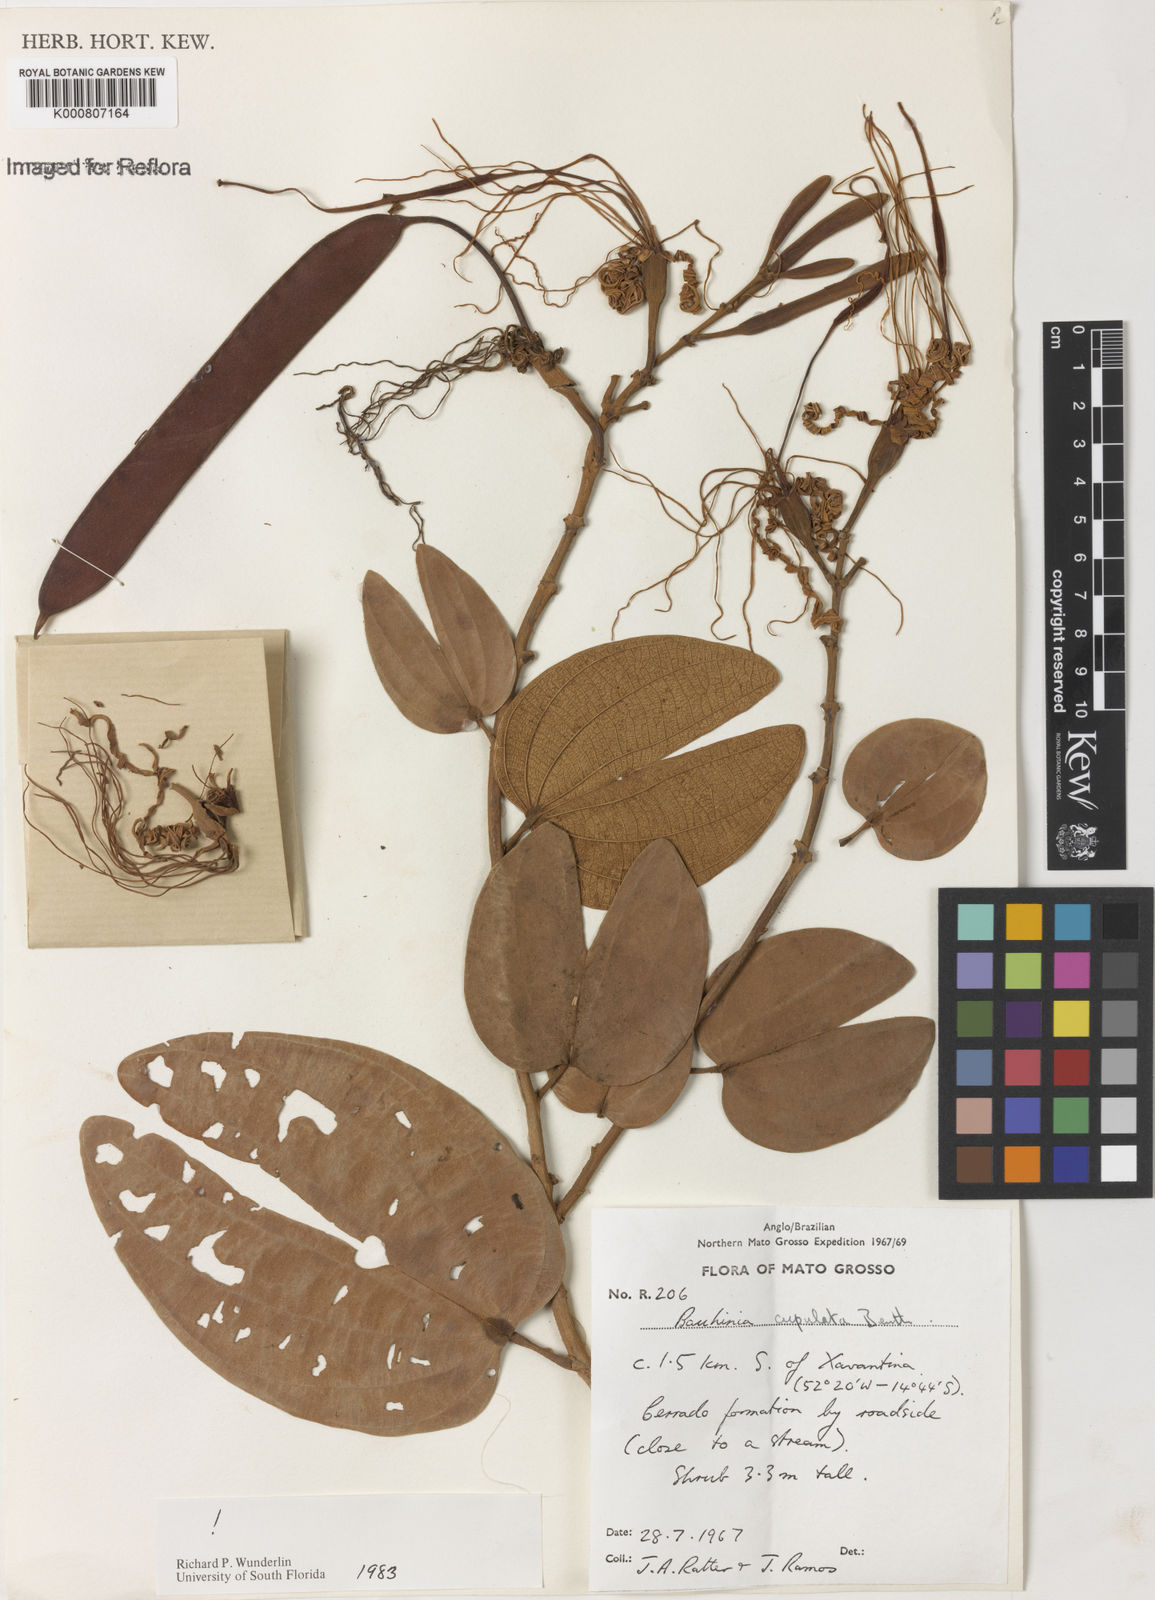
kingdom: Plantae
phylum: Tracheophyta
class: Magnoliopsida
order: Fabales
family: Fabaceae
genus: Bauhinia
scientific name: Bauhinia cupulata
